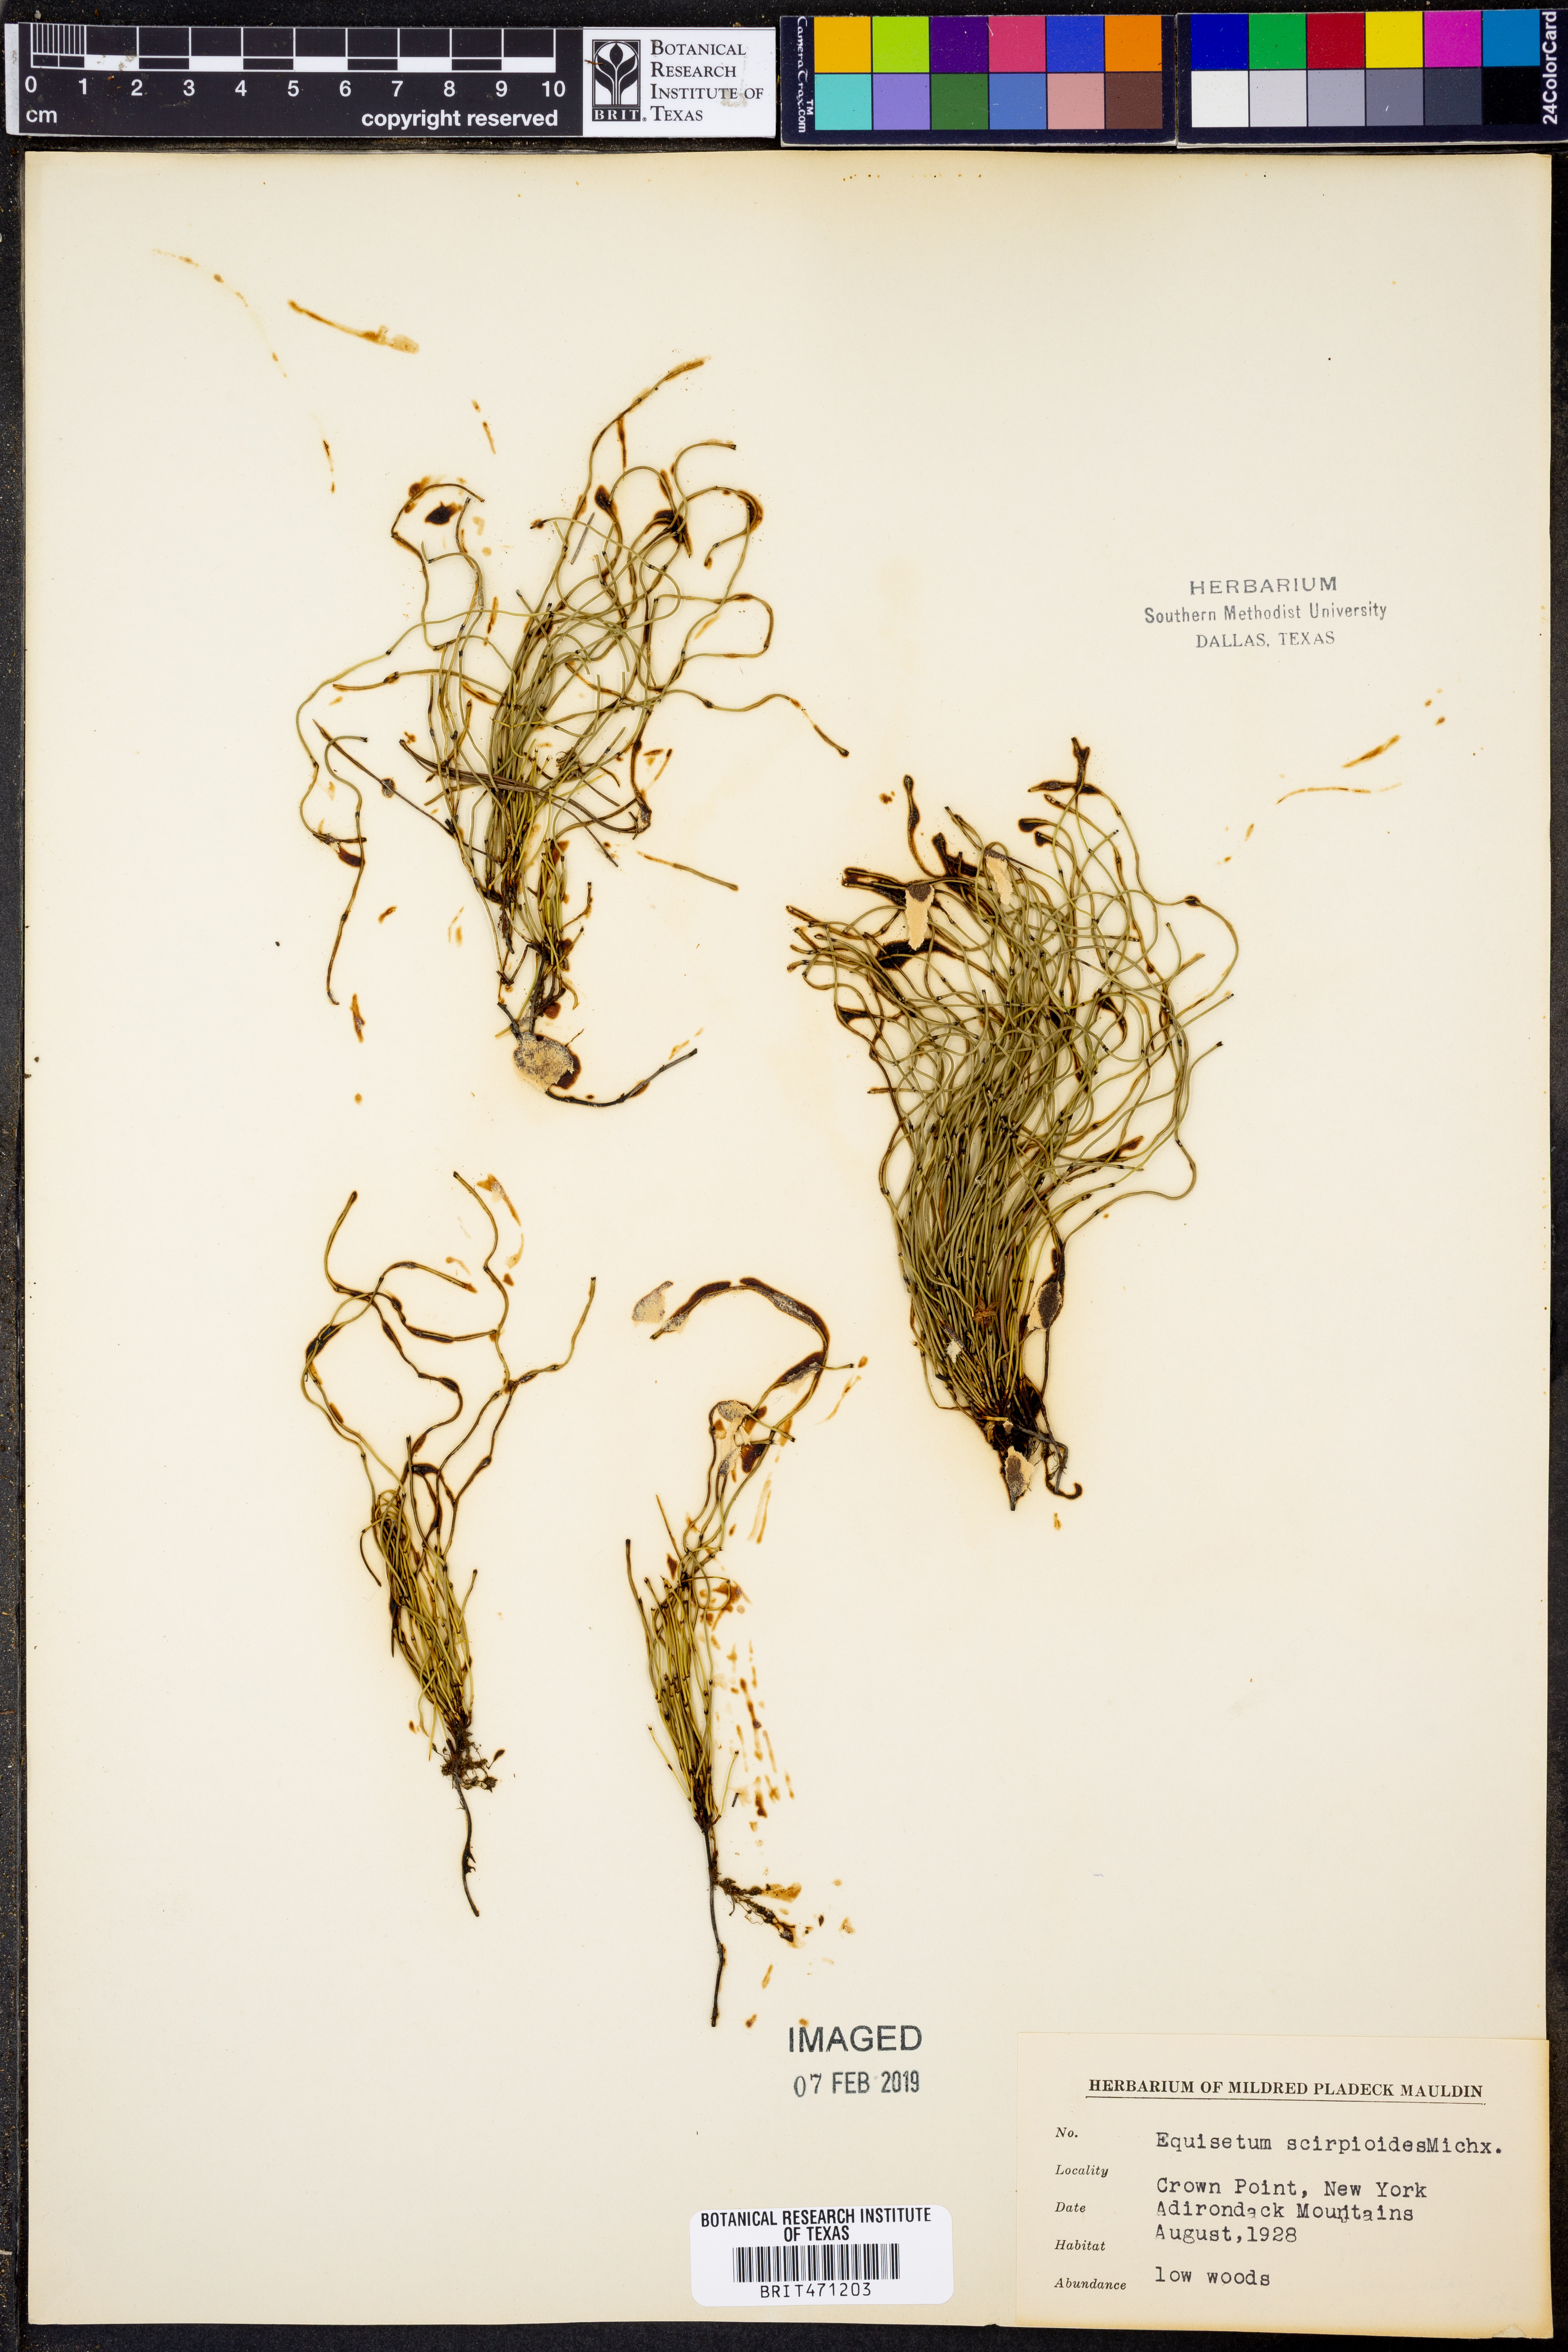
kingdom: Plantae
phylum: Tracheophyta
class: Polypodiopsida
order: Equisetales
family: Equisetaceae
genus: Equisetum
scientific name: Equisetum scirpoides
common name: Delicate horsetail
